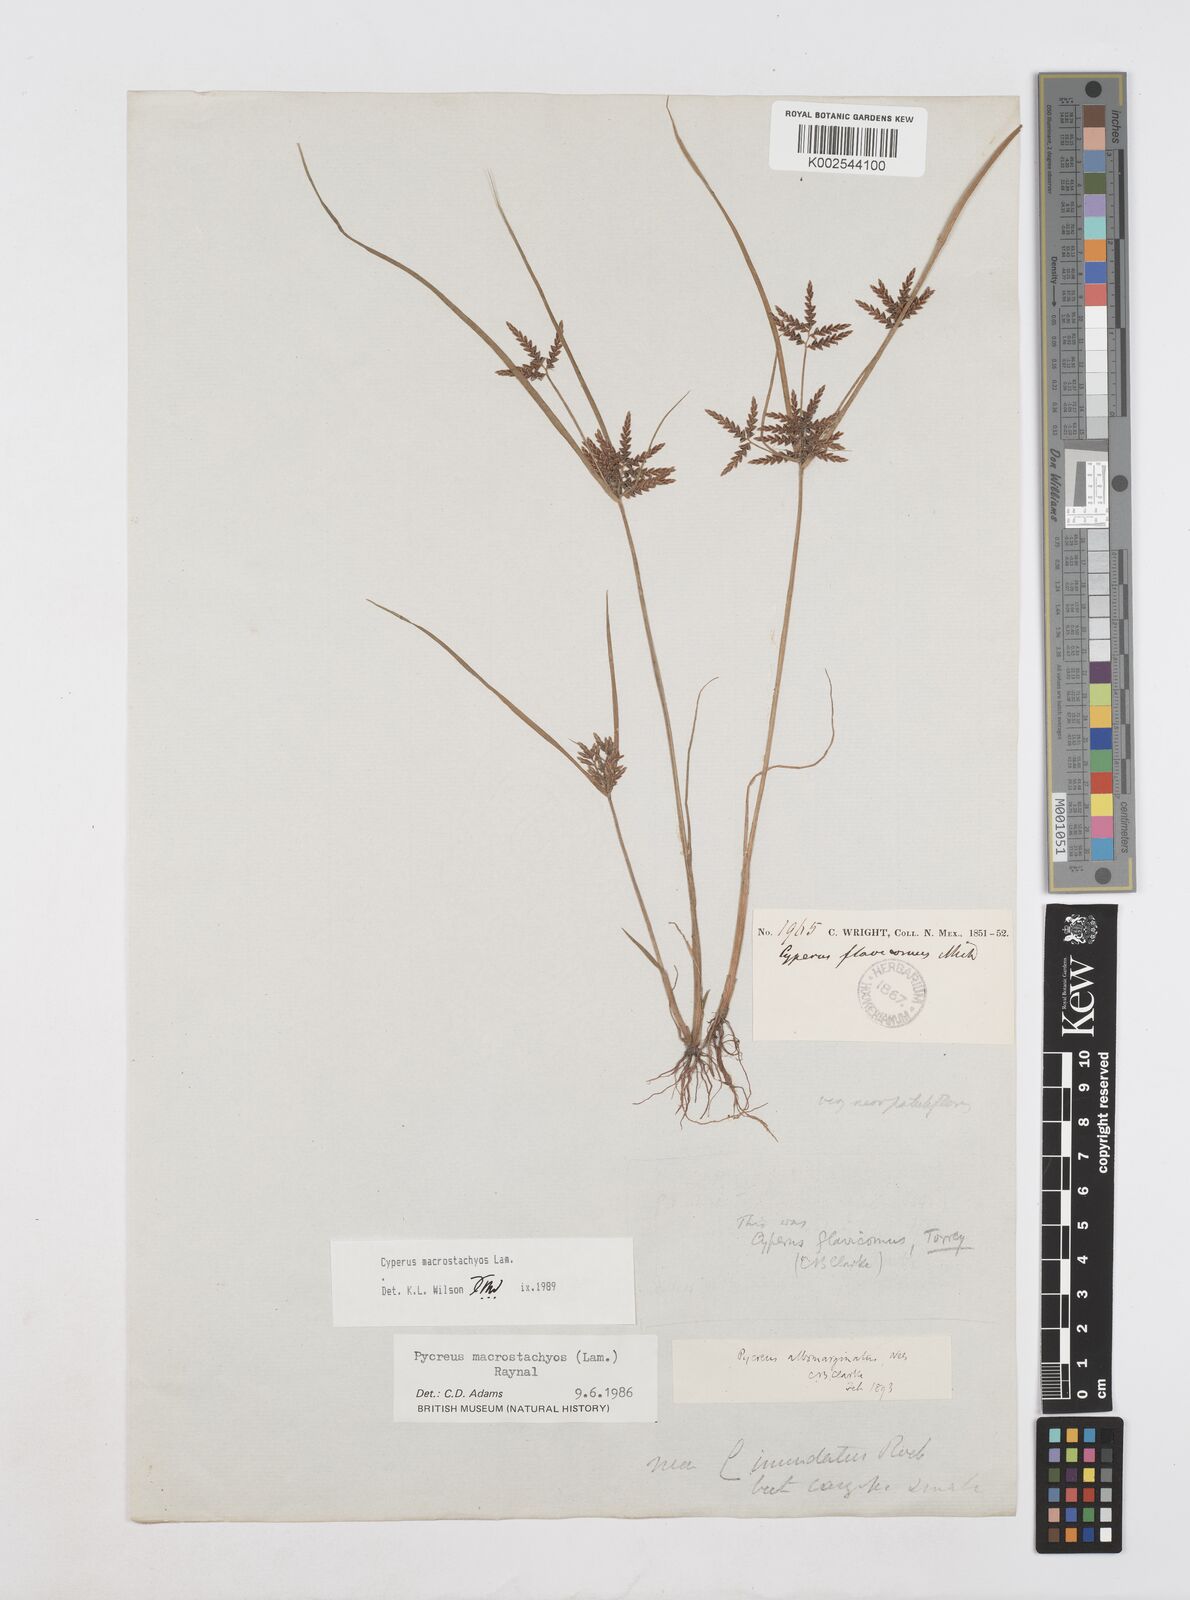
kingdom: Plantae
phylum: Tracheophyta
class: Liliopsida
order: Poales
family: Cyperaceae
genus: Cyperus
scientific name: Cyperus macrostachyos
